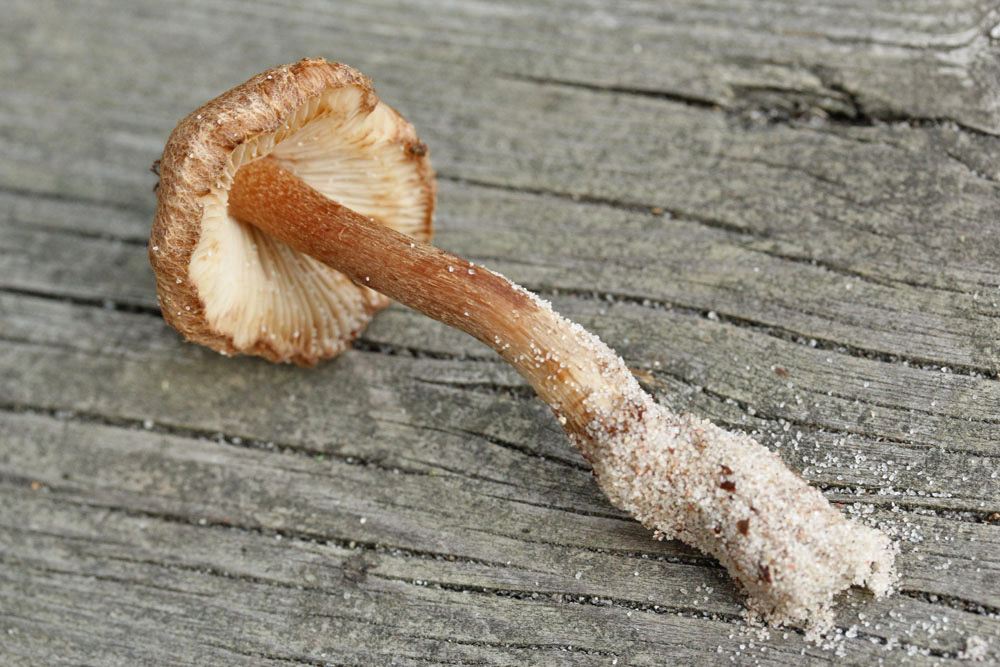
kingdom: Fungi
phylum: Basidiomycota
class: Agaricomycetes
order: Agaricales
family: Inocybaceae
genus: Inocybe
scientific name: Inocybe
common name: trævlhat
